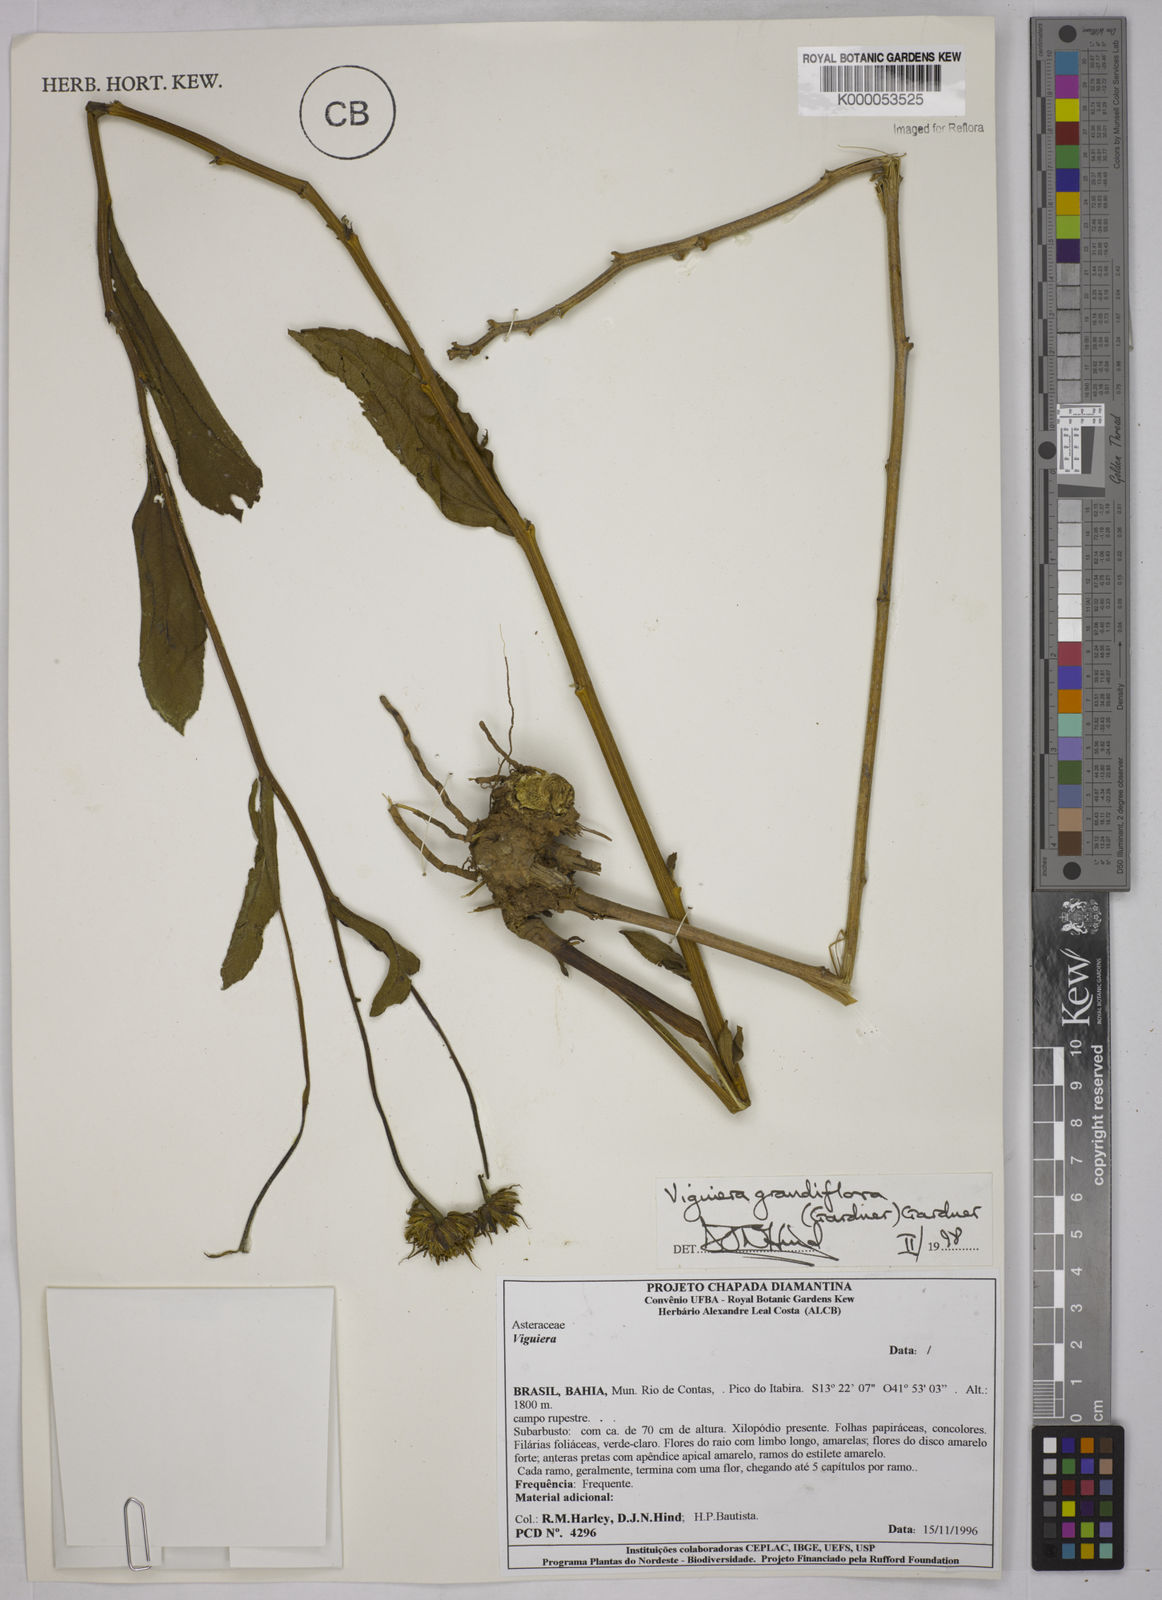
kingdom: Plantae
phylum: Tracheophyta
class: Magnoliopsida
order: Asterales
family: Asteraceae
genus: Aldama
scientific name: Aldama grandiflora
